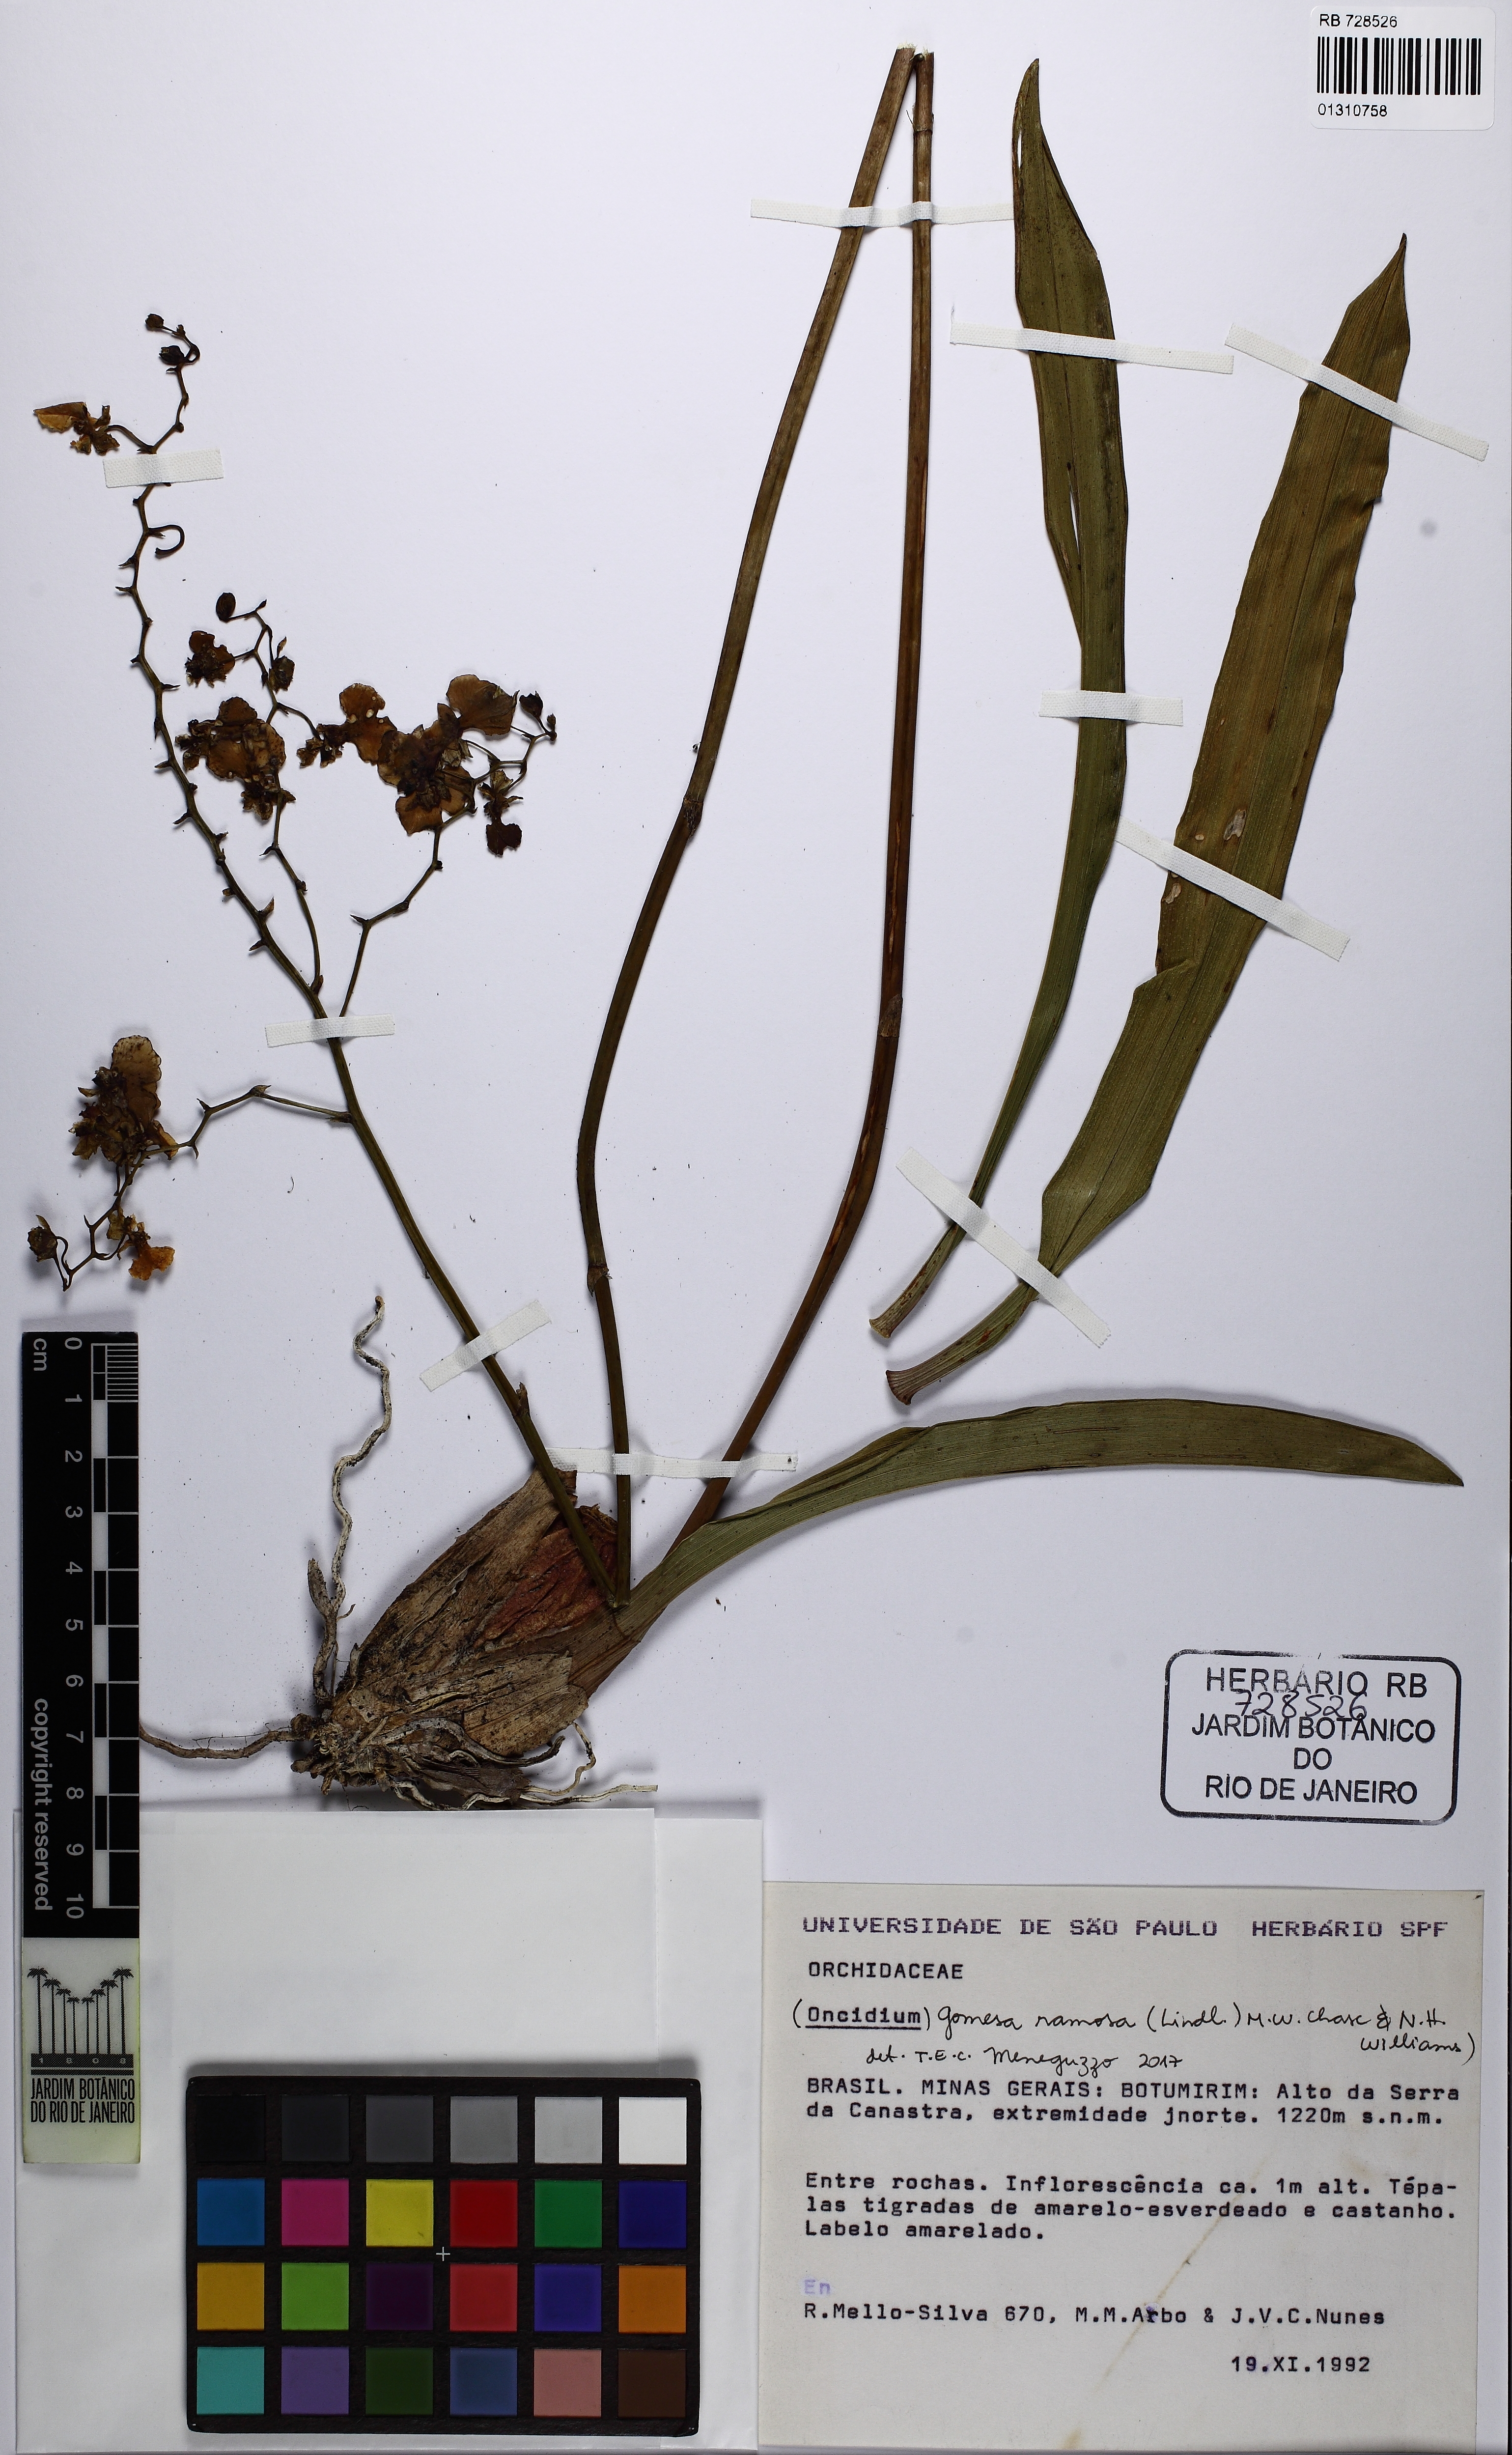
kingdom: Plantae
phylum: Tracheophyta
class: Liliopsida
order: Asparagales
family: Orchidaceae
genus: Gomesa
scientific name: Gomesa ramosa
